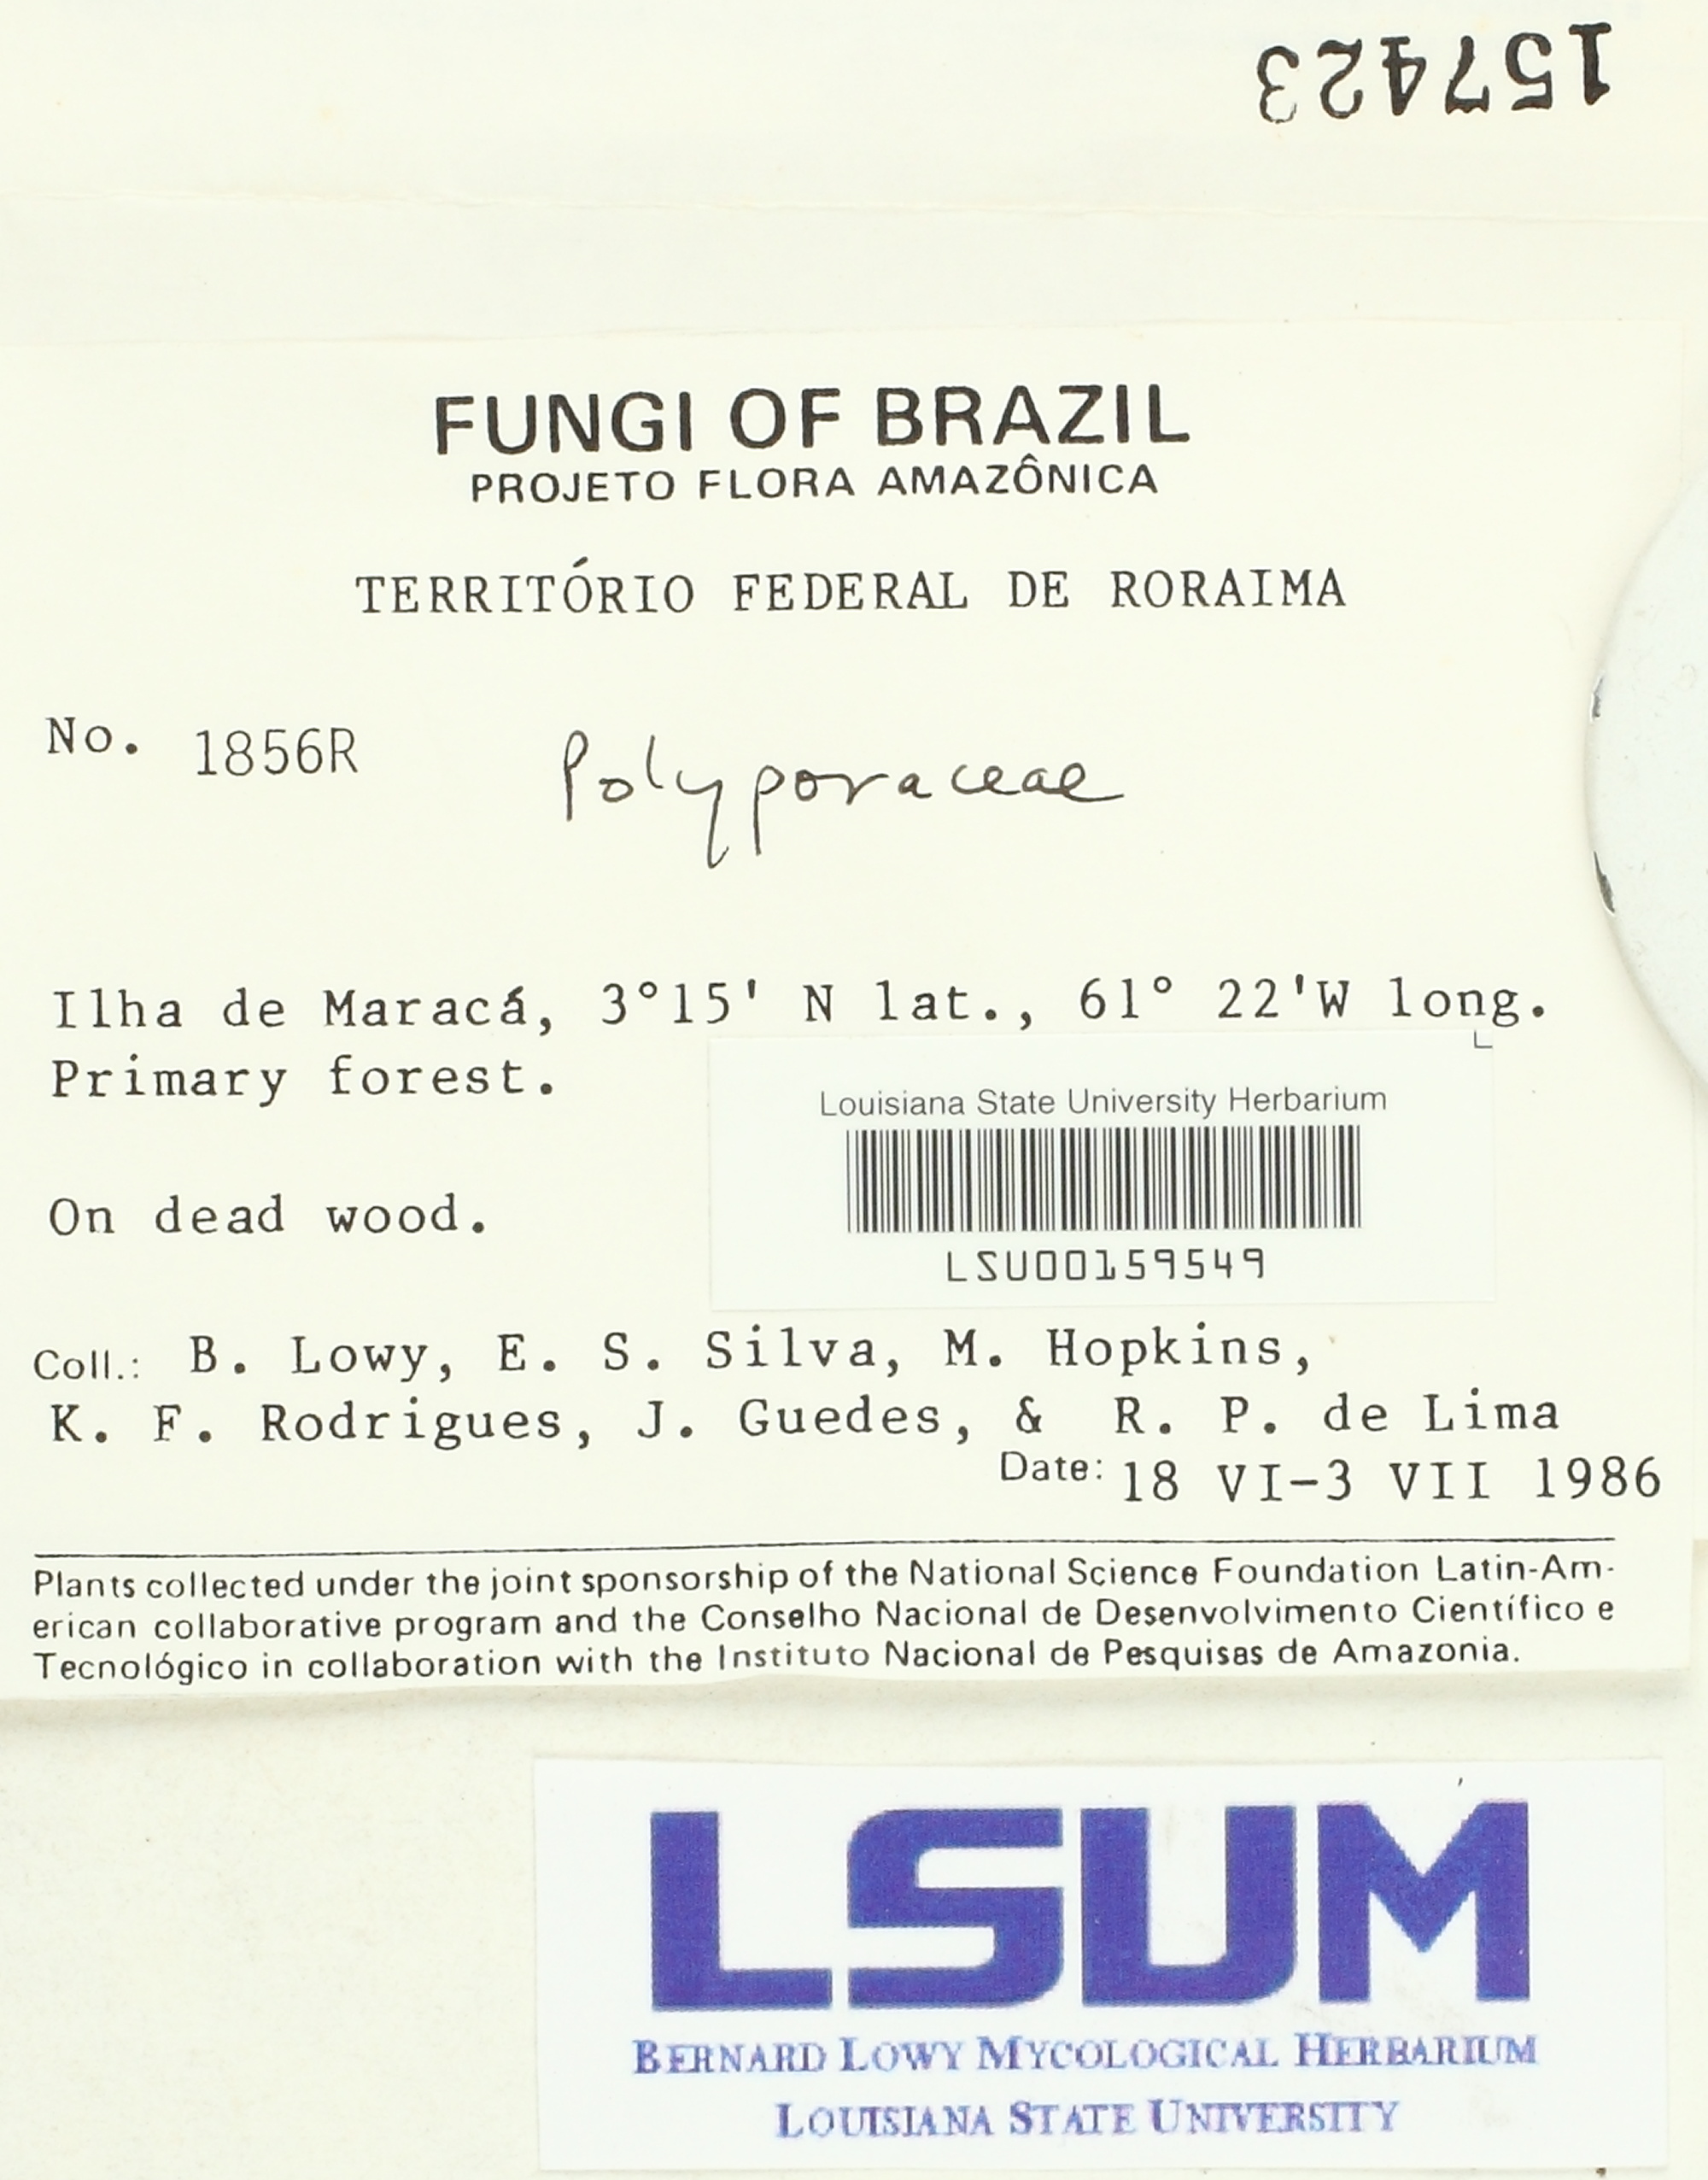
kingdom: Fungi
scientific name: Fungi
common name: Fungi
